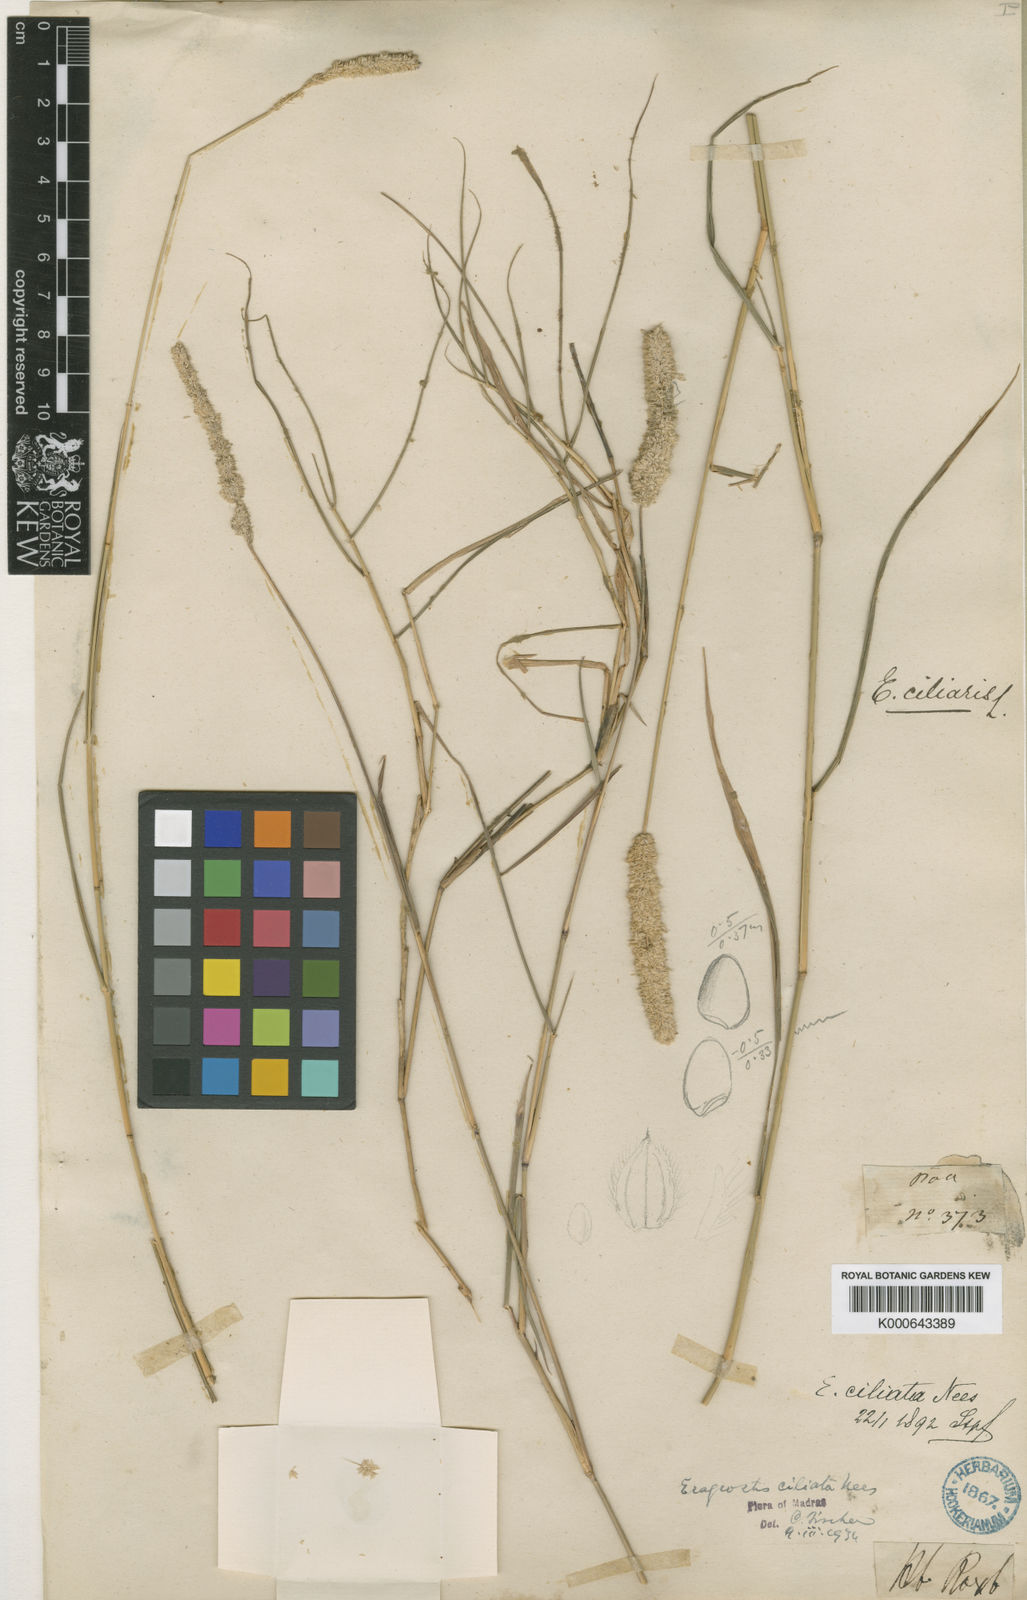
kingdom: Plantae
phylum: Tracheophyta
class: Liliopsida
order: Poales
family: Poaceae
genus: Eragrostis
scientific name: Eragrostis ciliata
